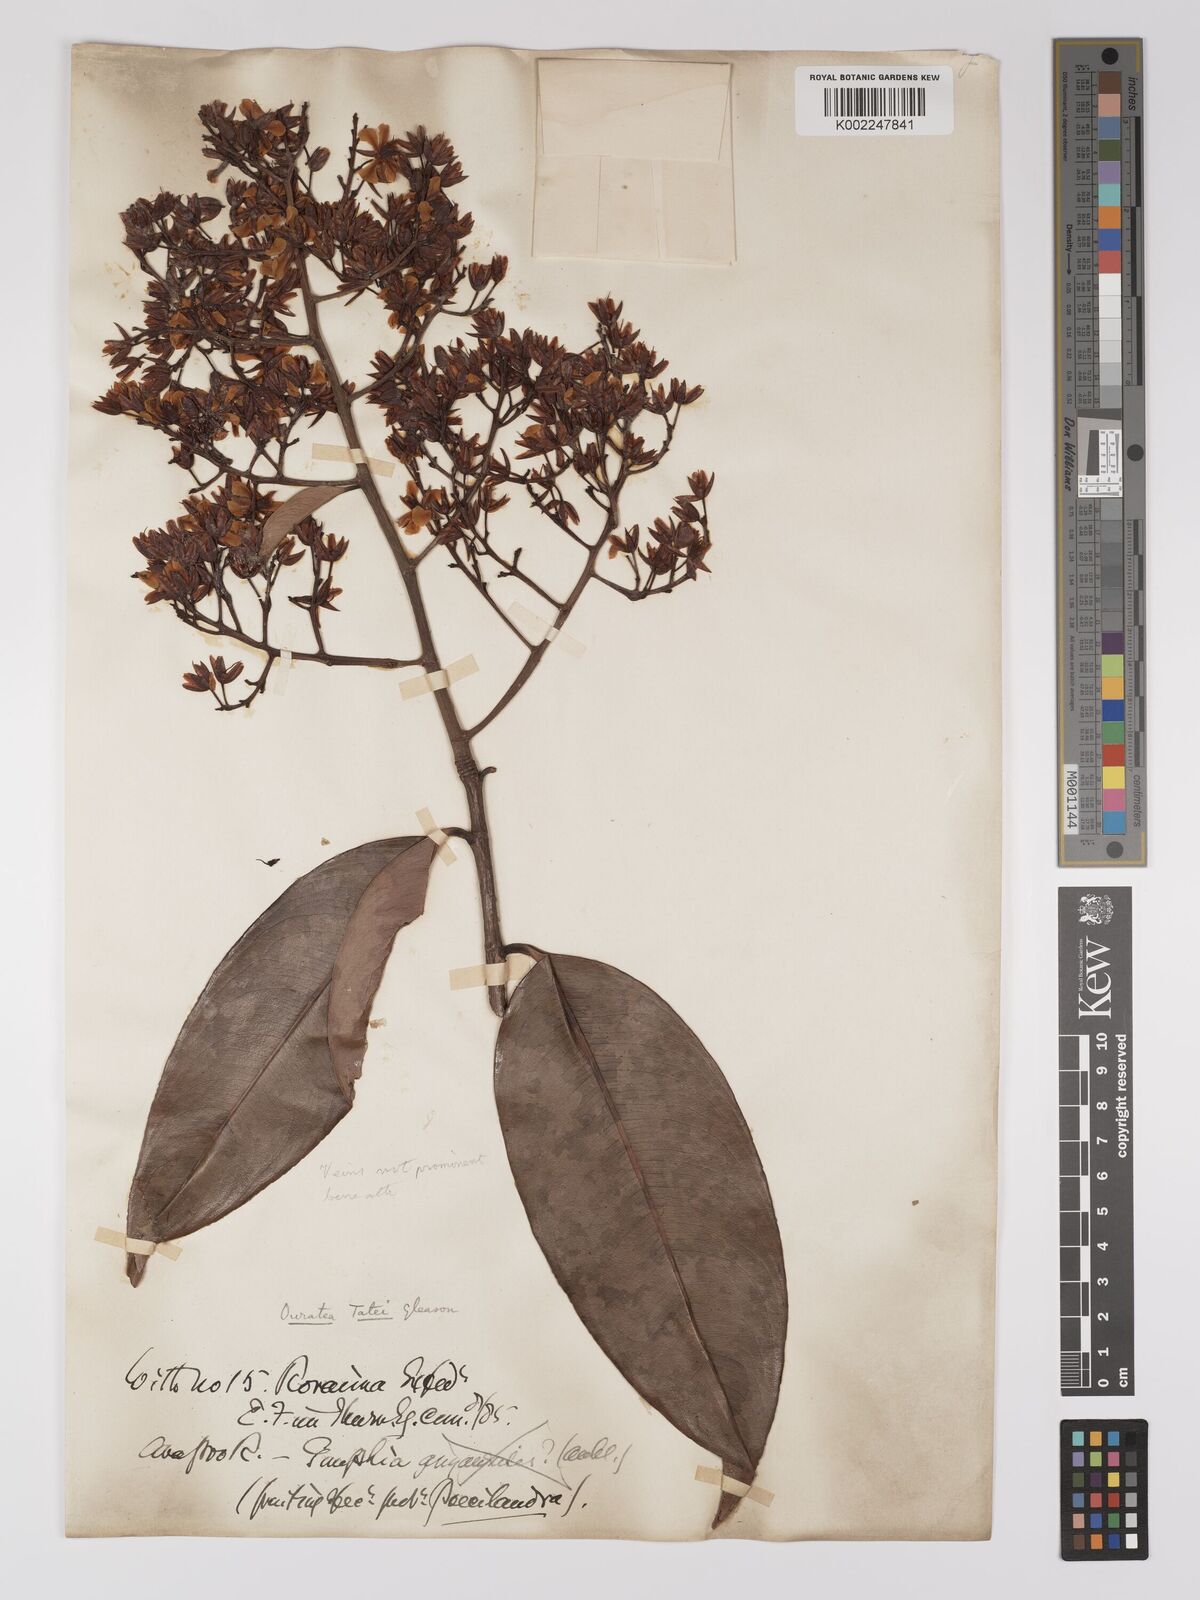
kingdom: Plantae
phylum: Tracheophyta
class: Magnoliopsida
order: Malpighiales
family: Ochnaceae
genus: Ouratea
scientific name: Ouratea tatei
